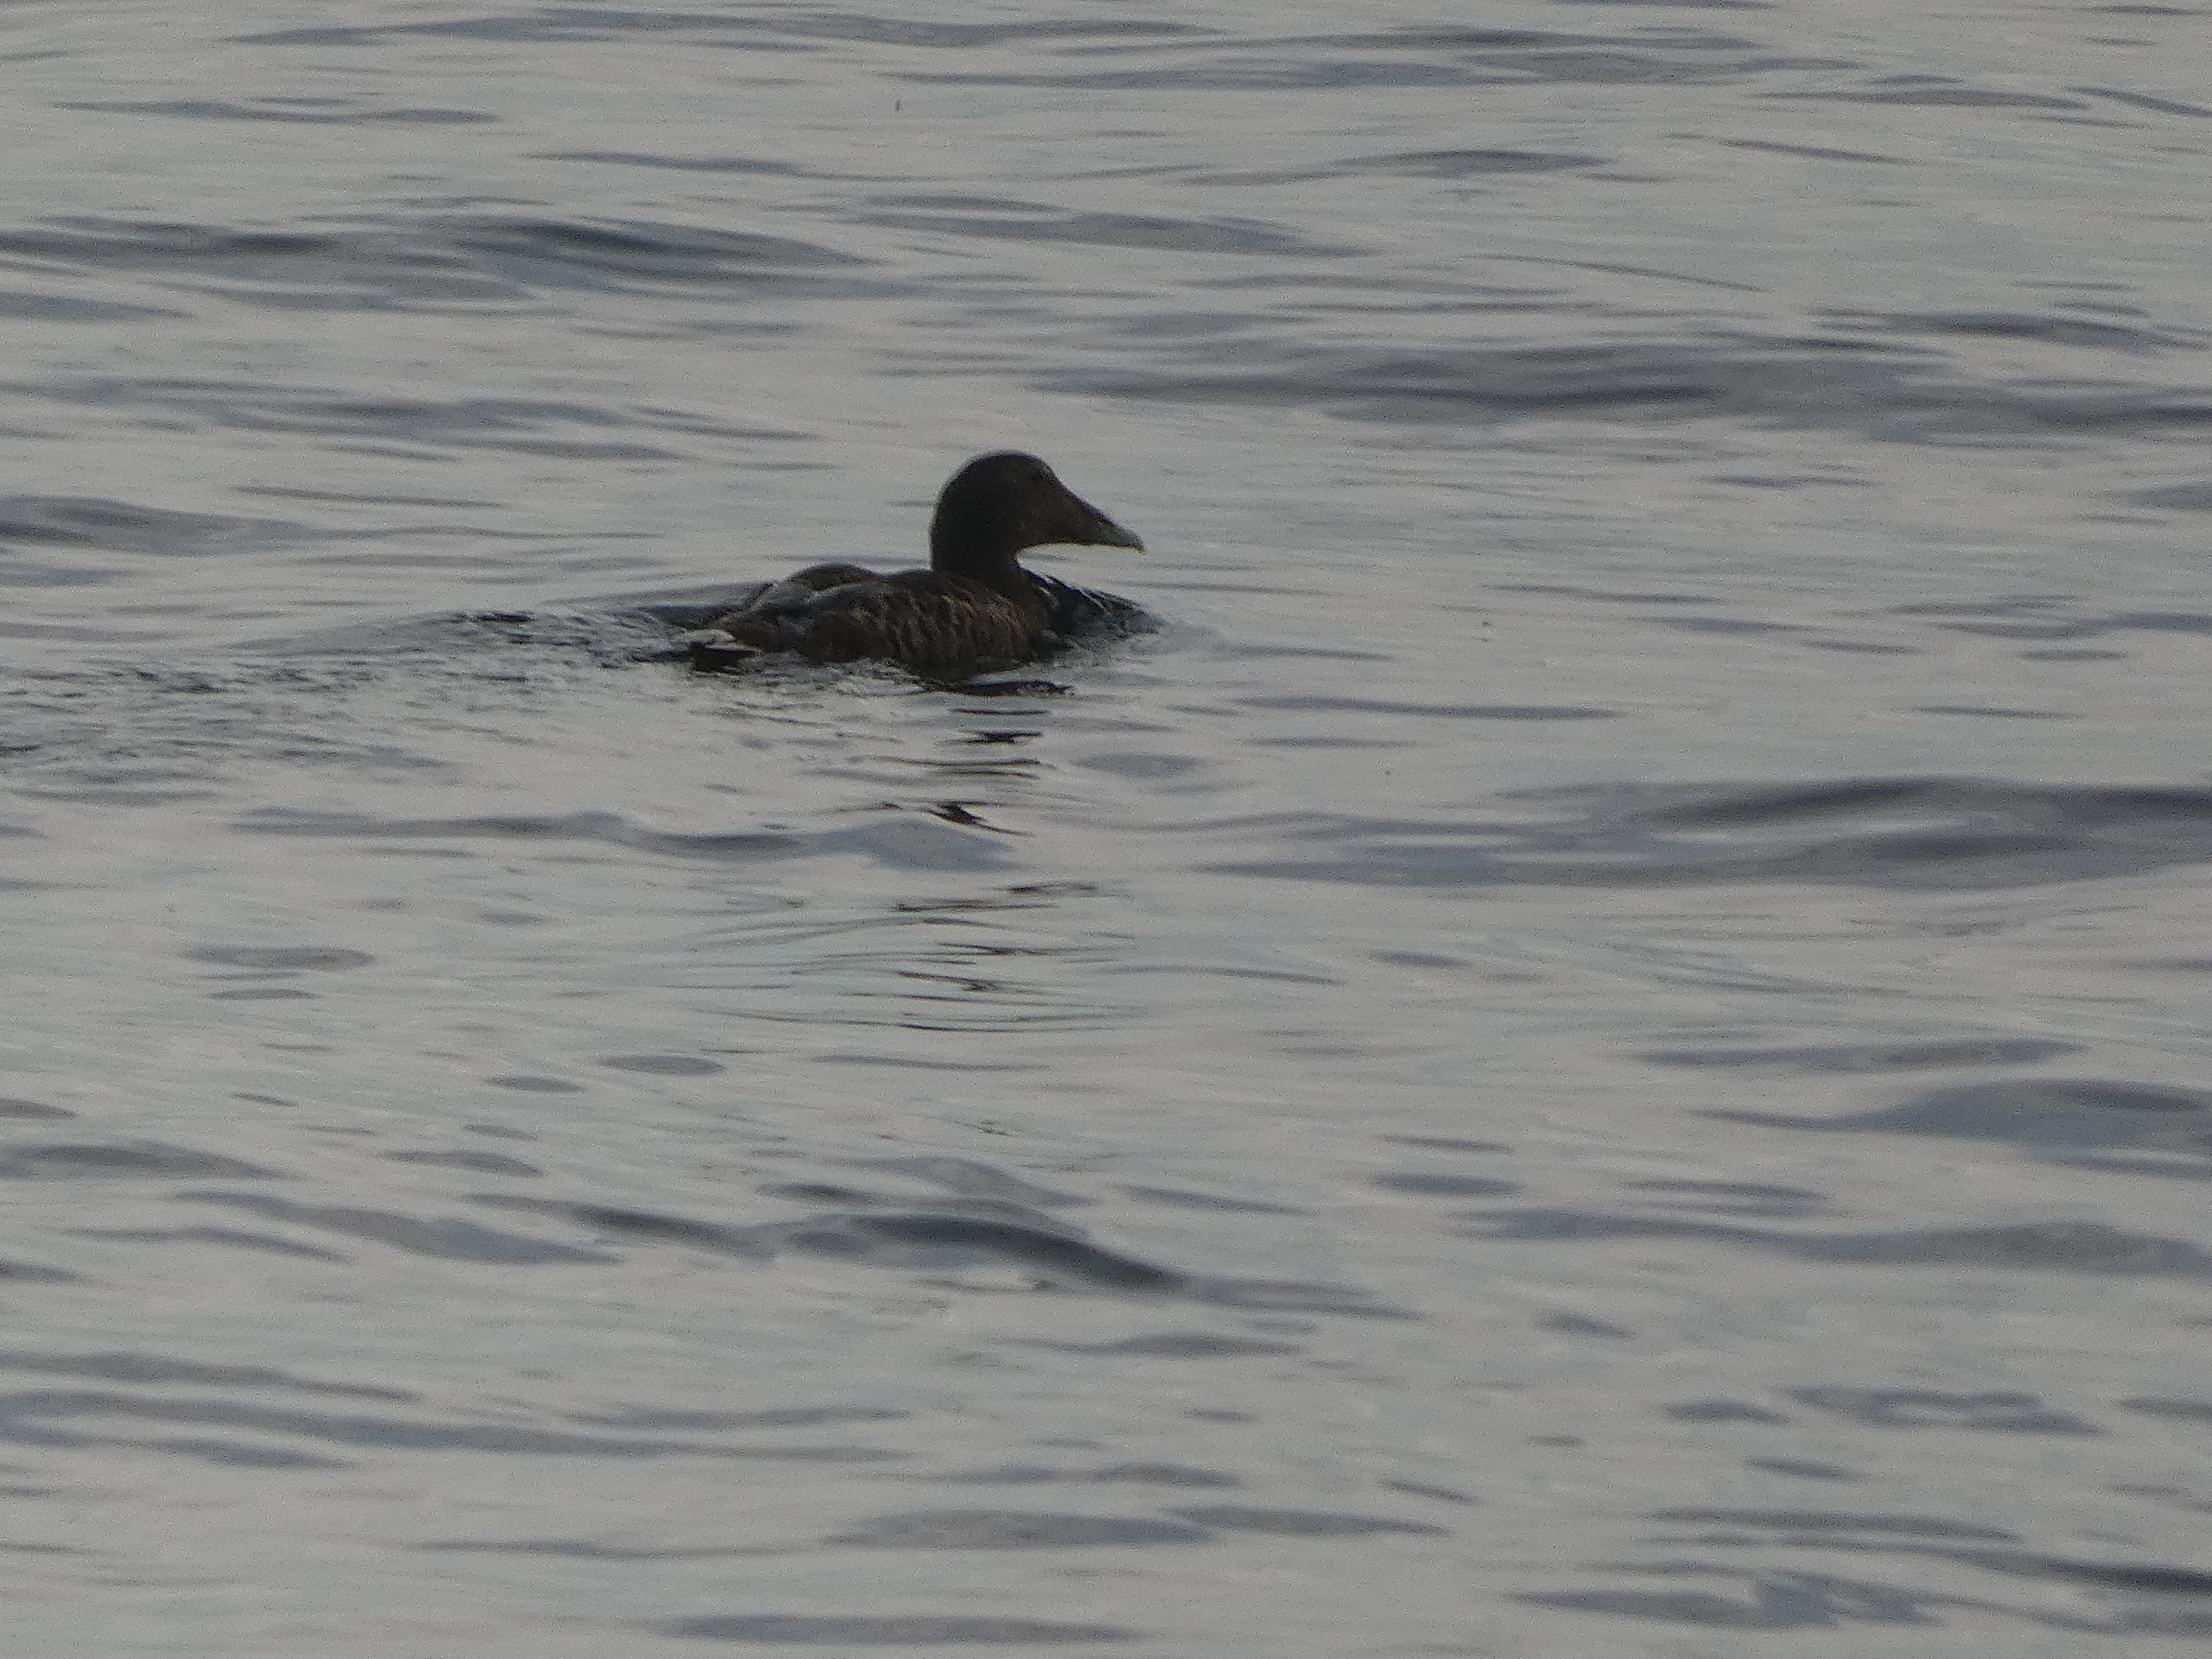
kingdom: Animalia
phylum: Chordata
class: Aves
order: Anseriformes
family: Anatidae
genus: Somateria
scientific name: Somateria mollissima
